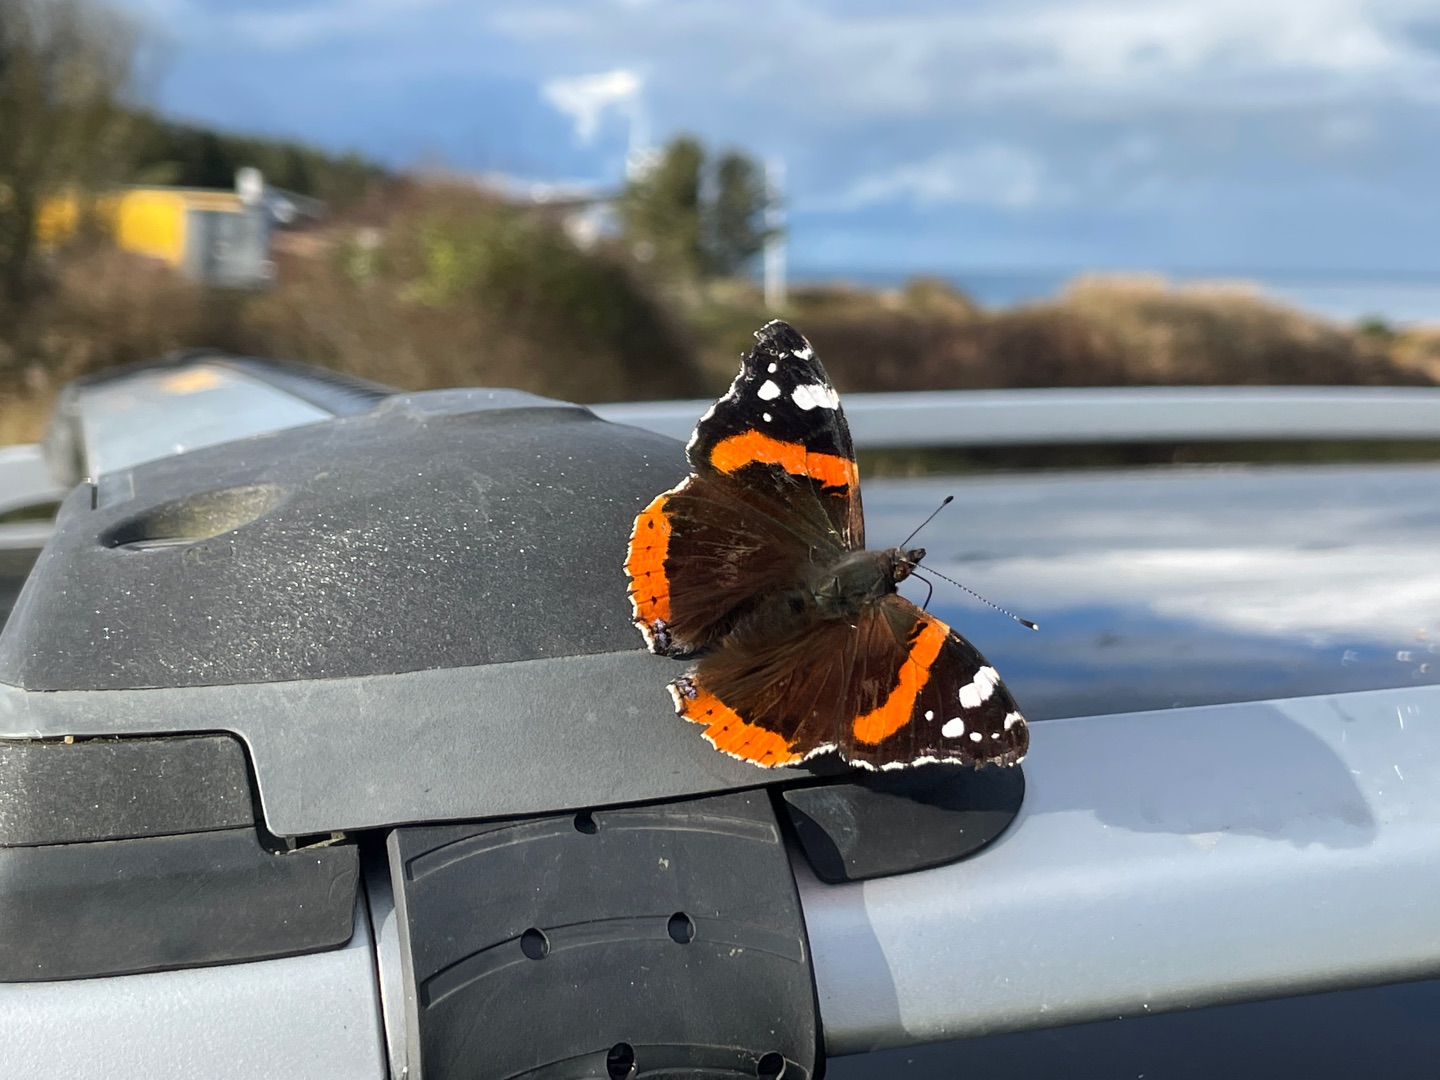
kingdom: Animalia
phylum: Arthropoda
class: Insecta
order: Lepidoptera
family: Nymphalidae
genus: Vanessa
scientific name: Vanessa atalanta
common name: Admiral
